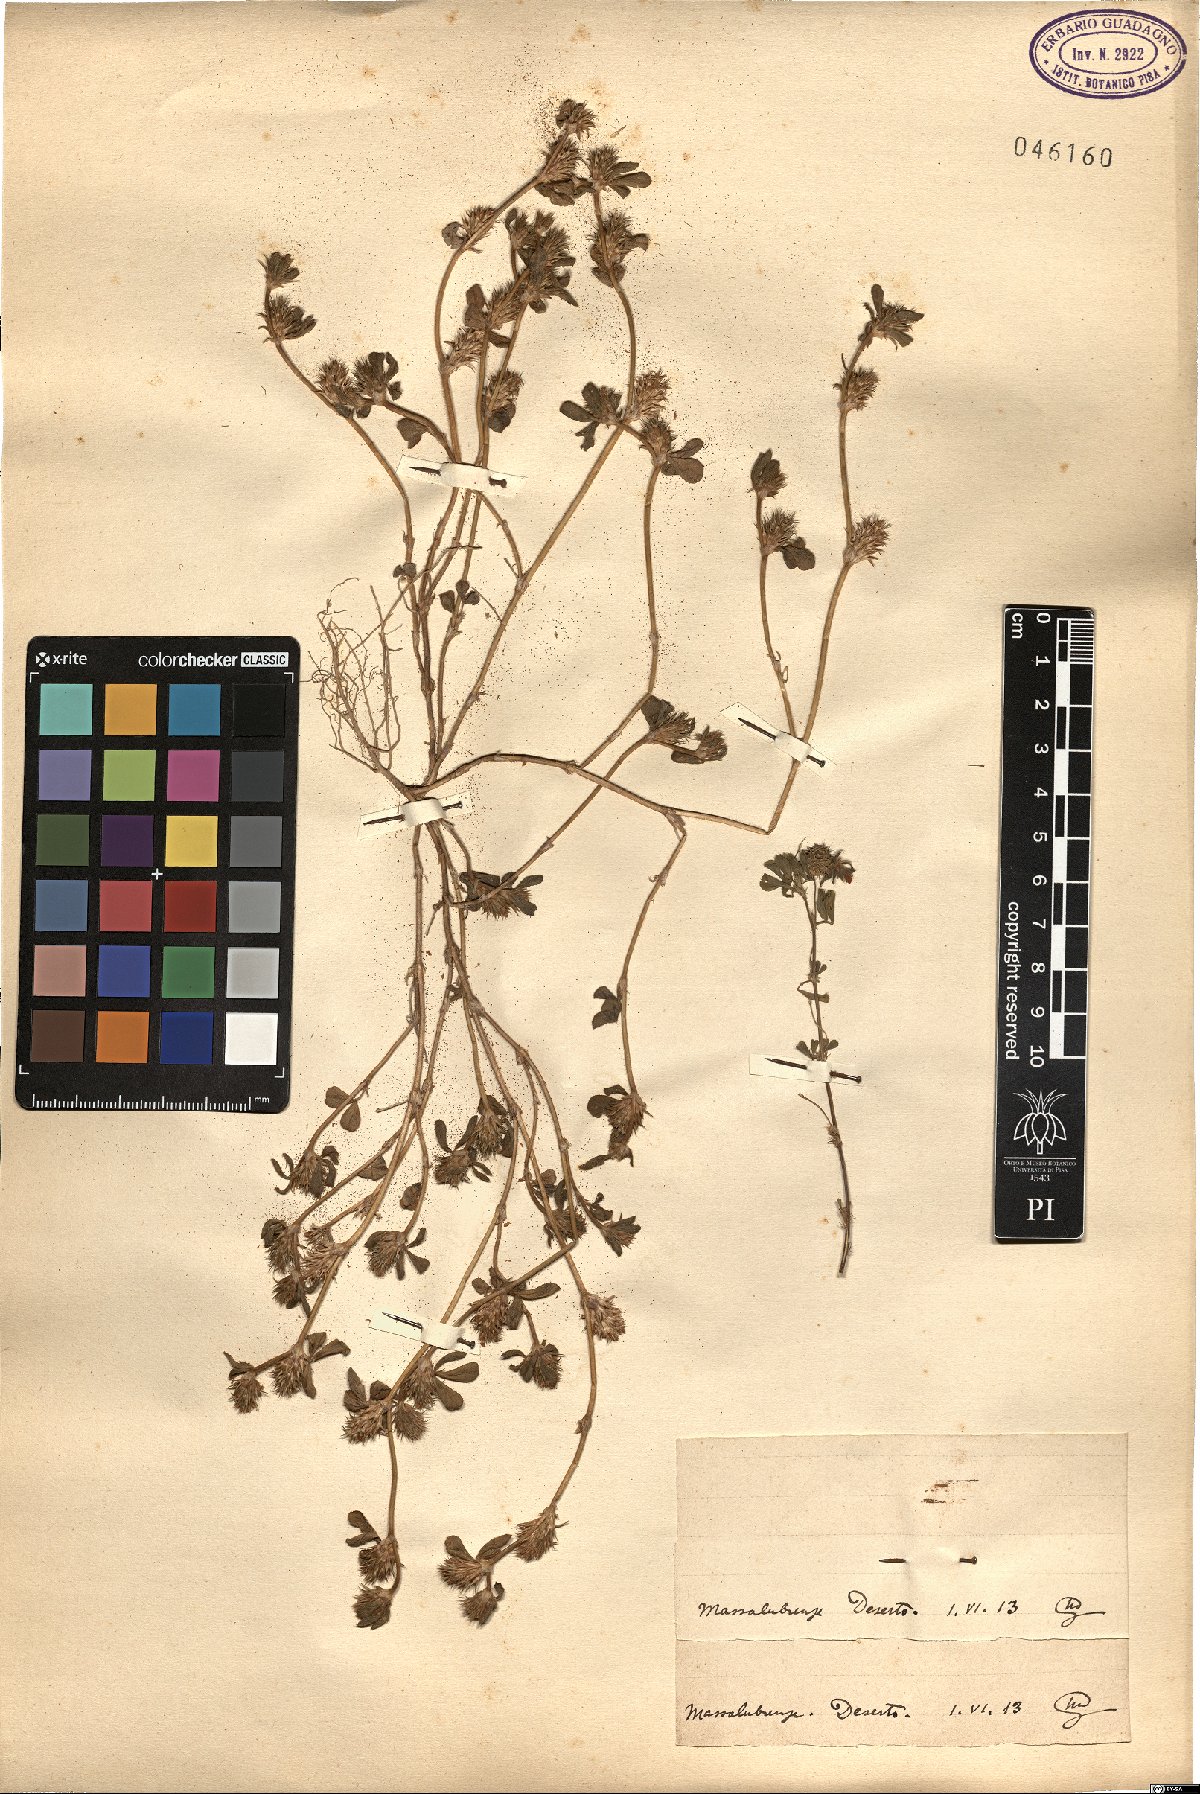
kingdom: Plantae
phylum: Tracheophyta
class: Magnoliopsida
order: Fabales
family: Fabaceae
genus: Trifolium
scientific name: Trifolium
